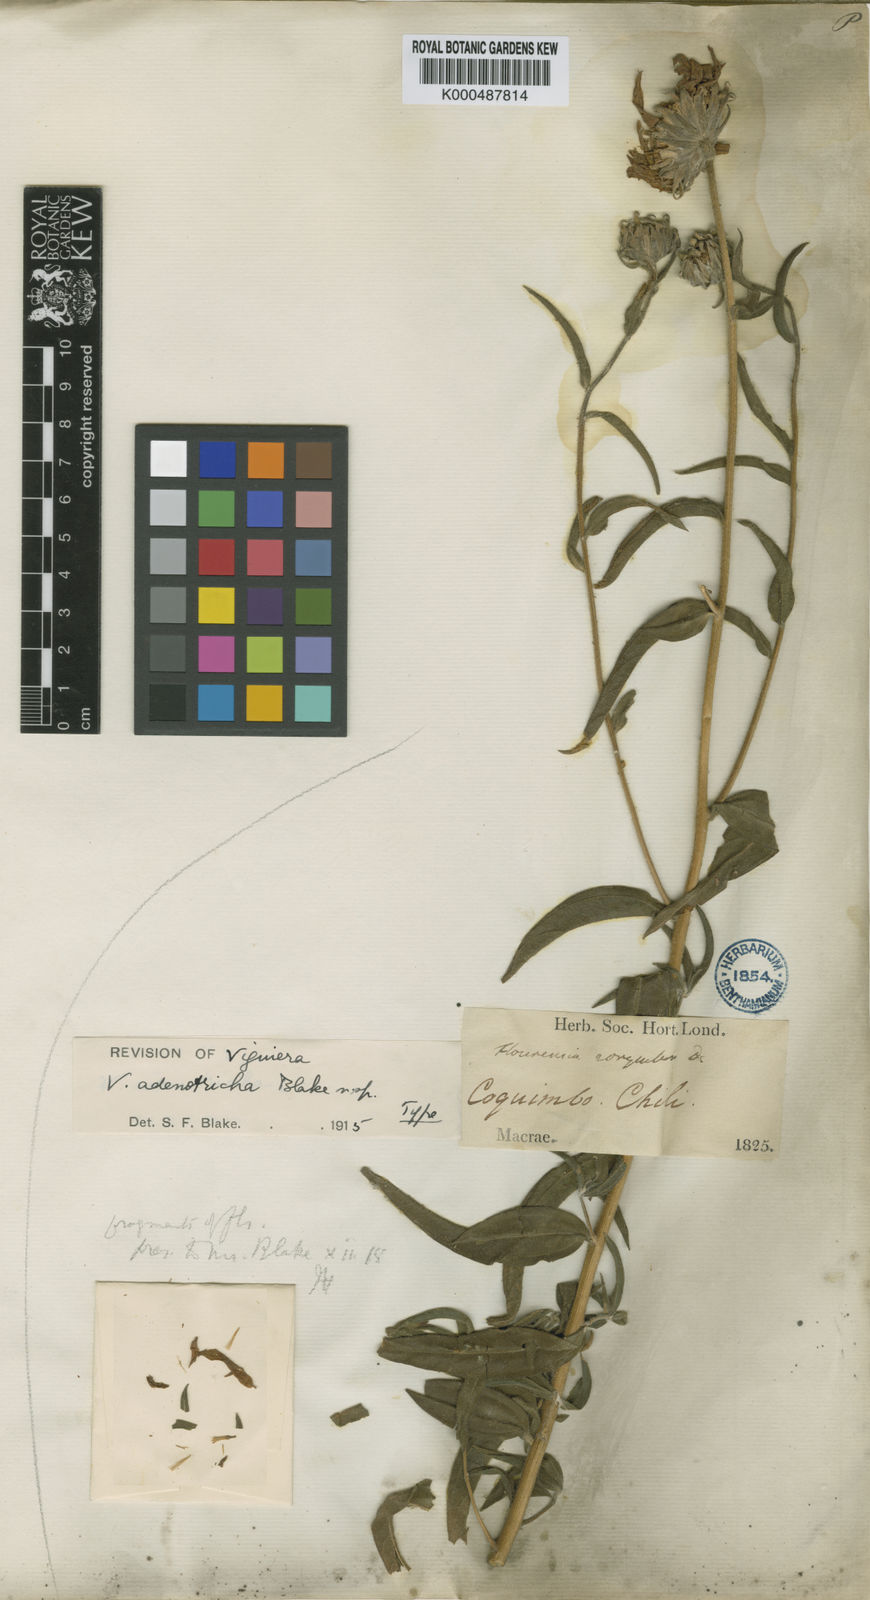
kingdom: Plantae
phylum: Tracheophyta
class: Magnoliopsida
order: Asterales
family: Asteraceae
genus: Aldama
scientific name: Aldama adenotricha
